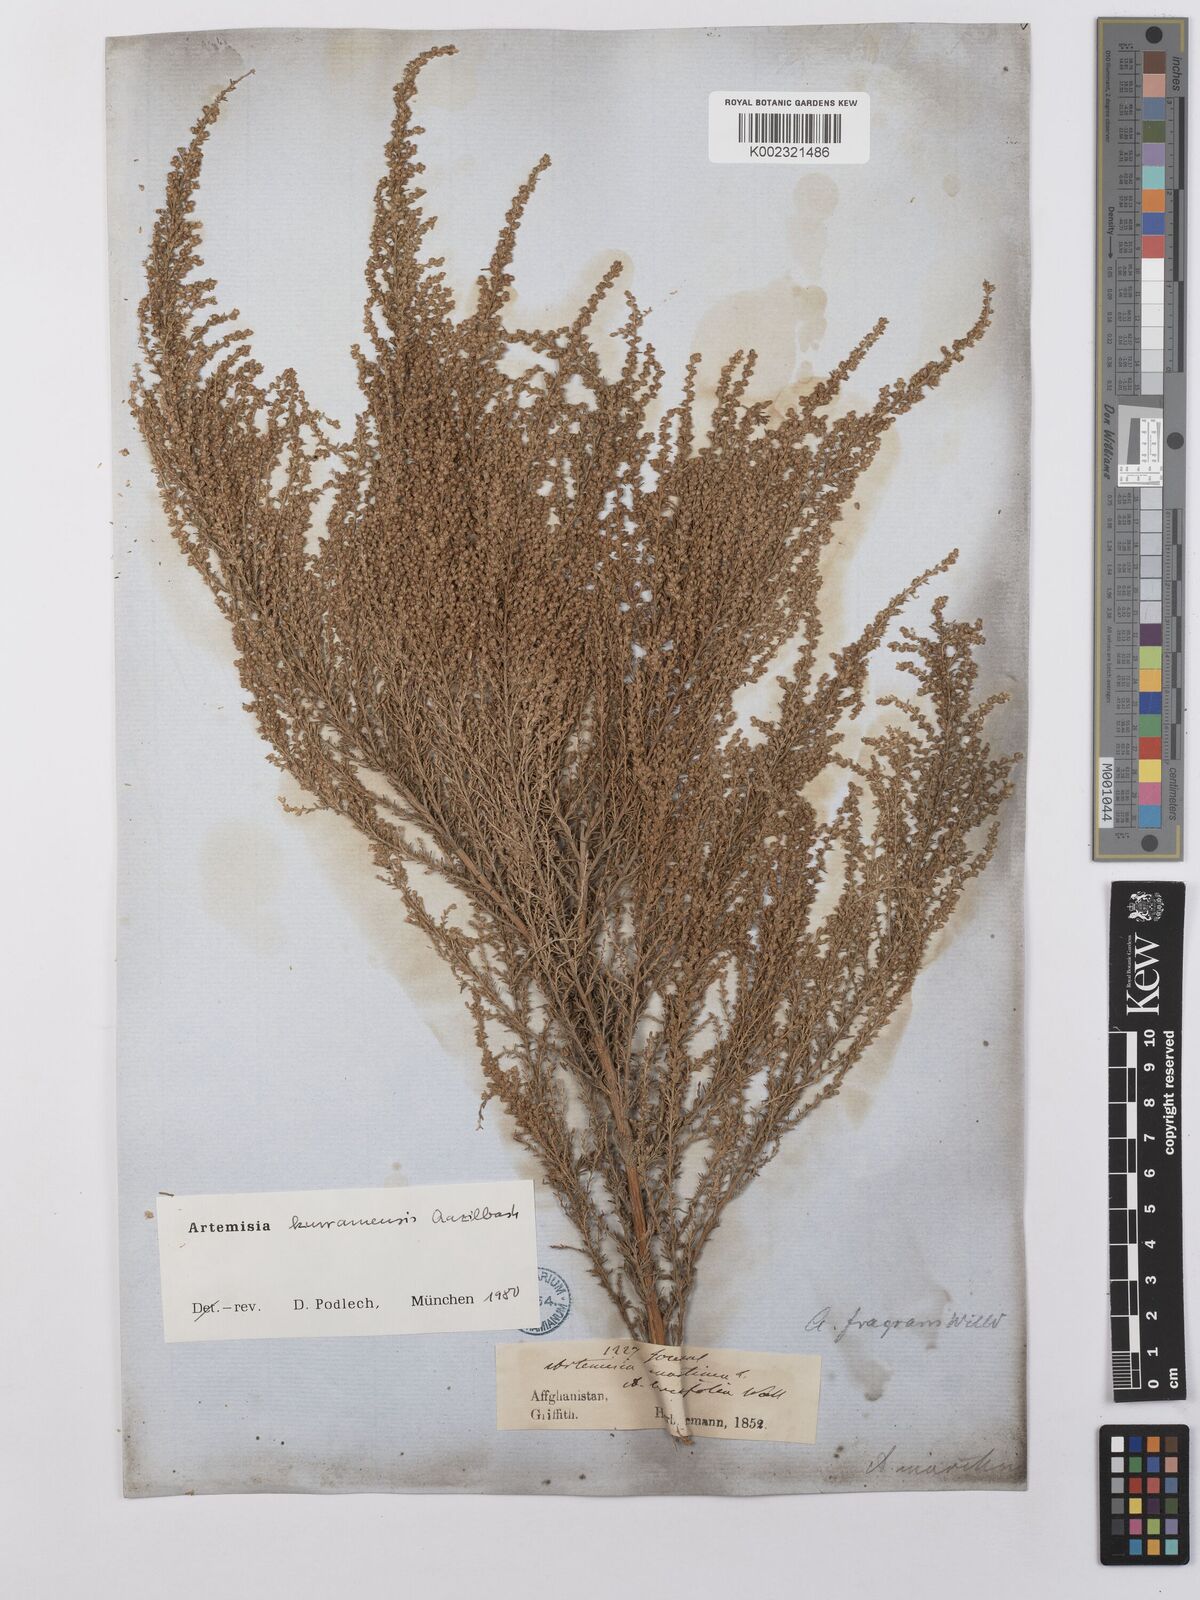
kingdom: Plantae
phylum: Tracheophyta
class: Magnoliopsida
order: Asterales
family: Asteraceae
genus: Artemisia
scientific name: Artemisia kurramensis
